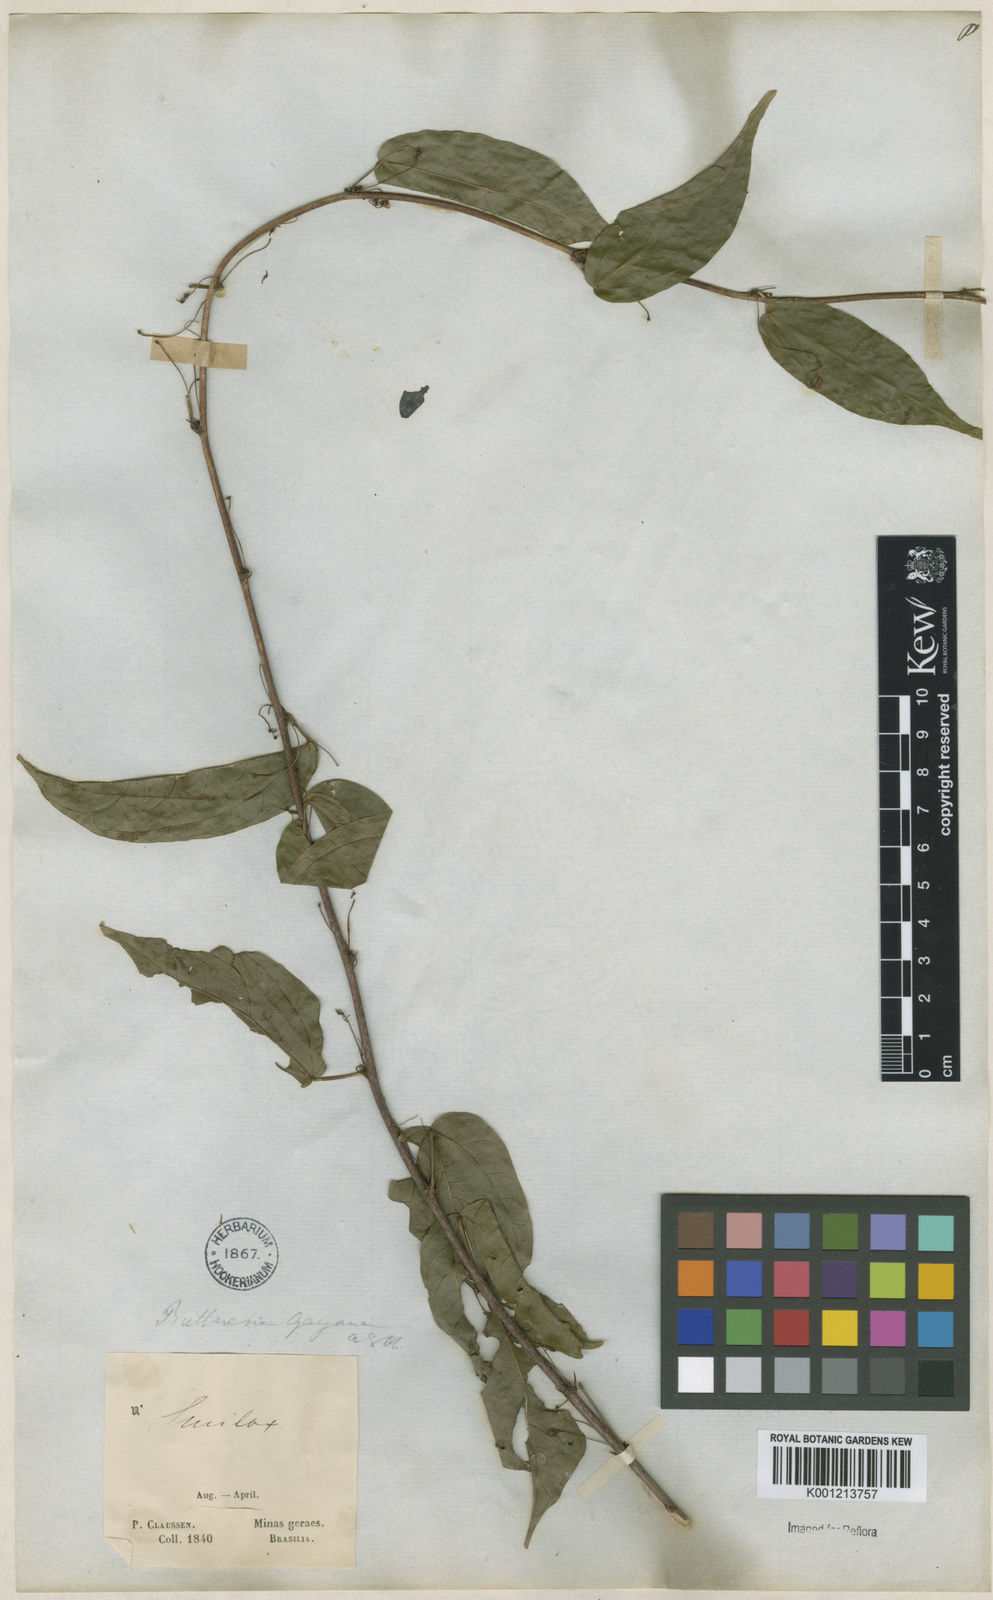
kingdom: Plantae
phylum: Tracheophyta
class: Magnoliopsida
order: Malvales
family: Malvaceae
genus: Byttneria
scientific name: Byttneria gayana
